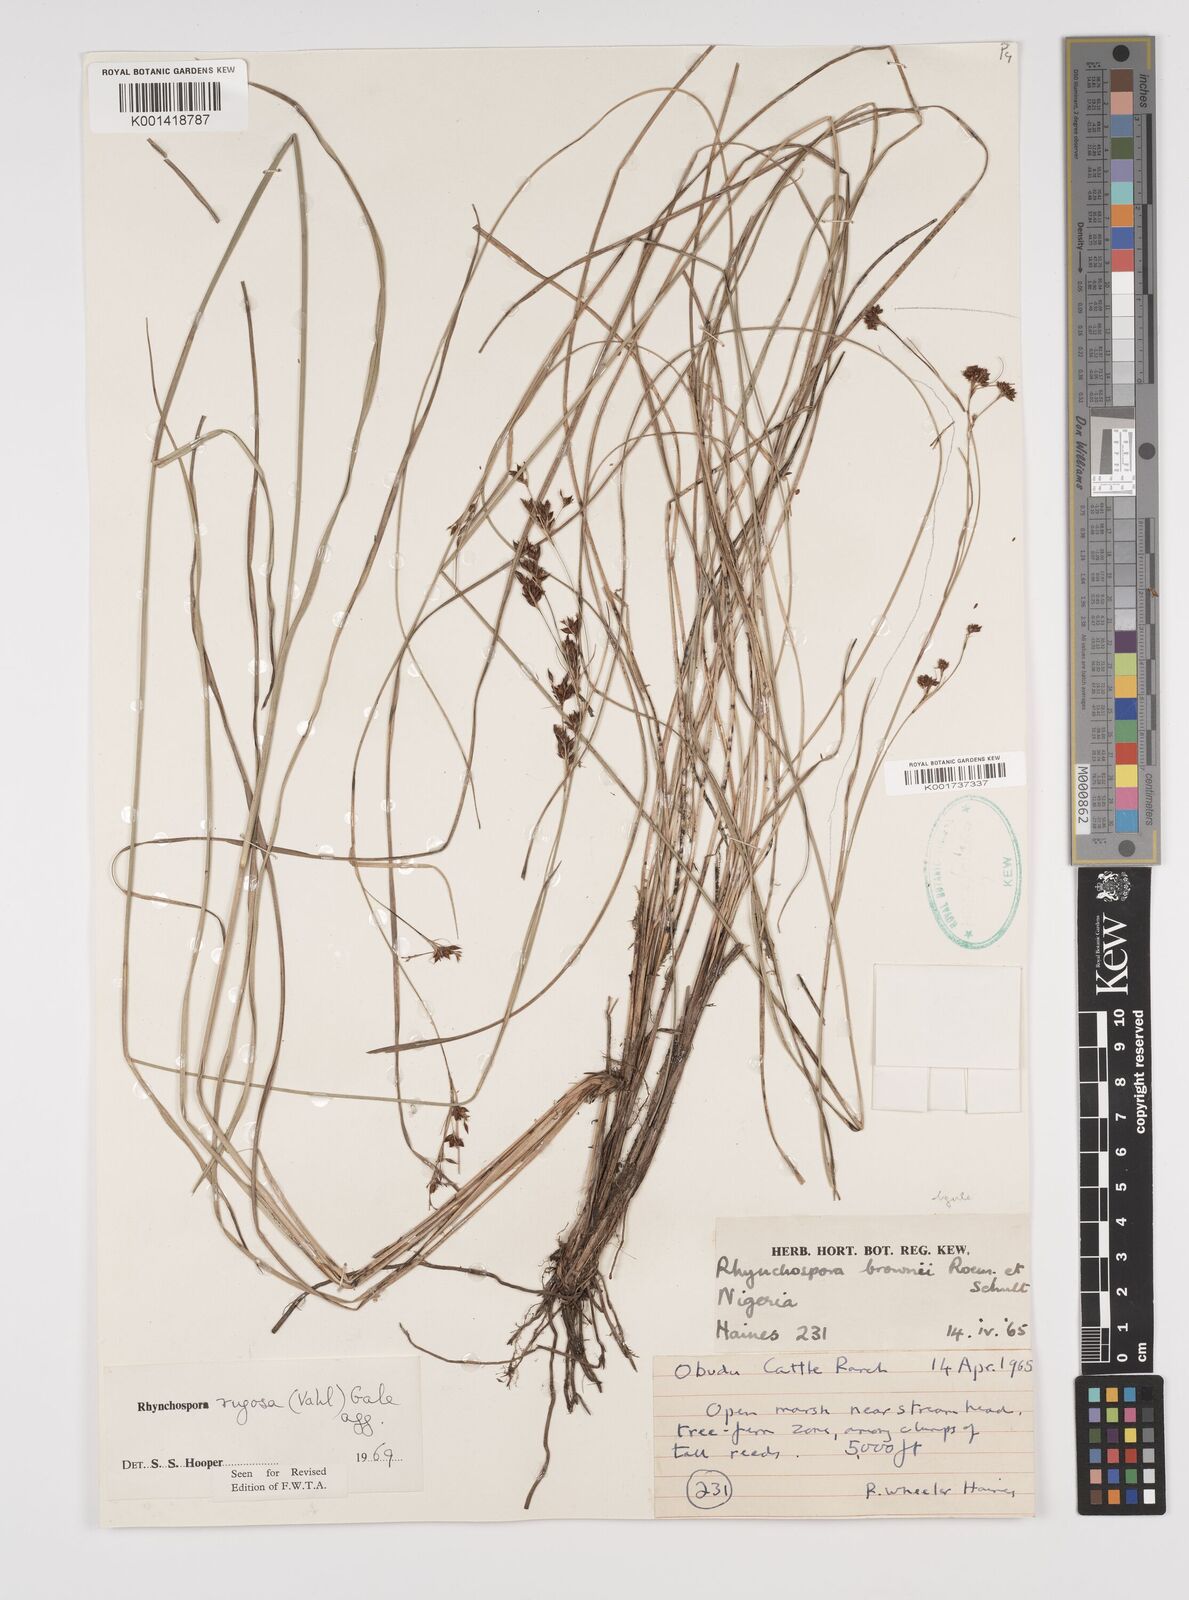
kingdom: Plantae
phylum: Tracheophyta
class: Liliopsida
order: Poales
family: Cyperaceae
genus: Rhynchospora
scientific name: Rhynchospora rugosa
